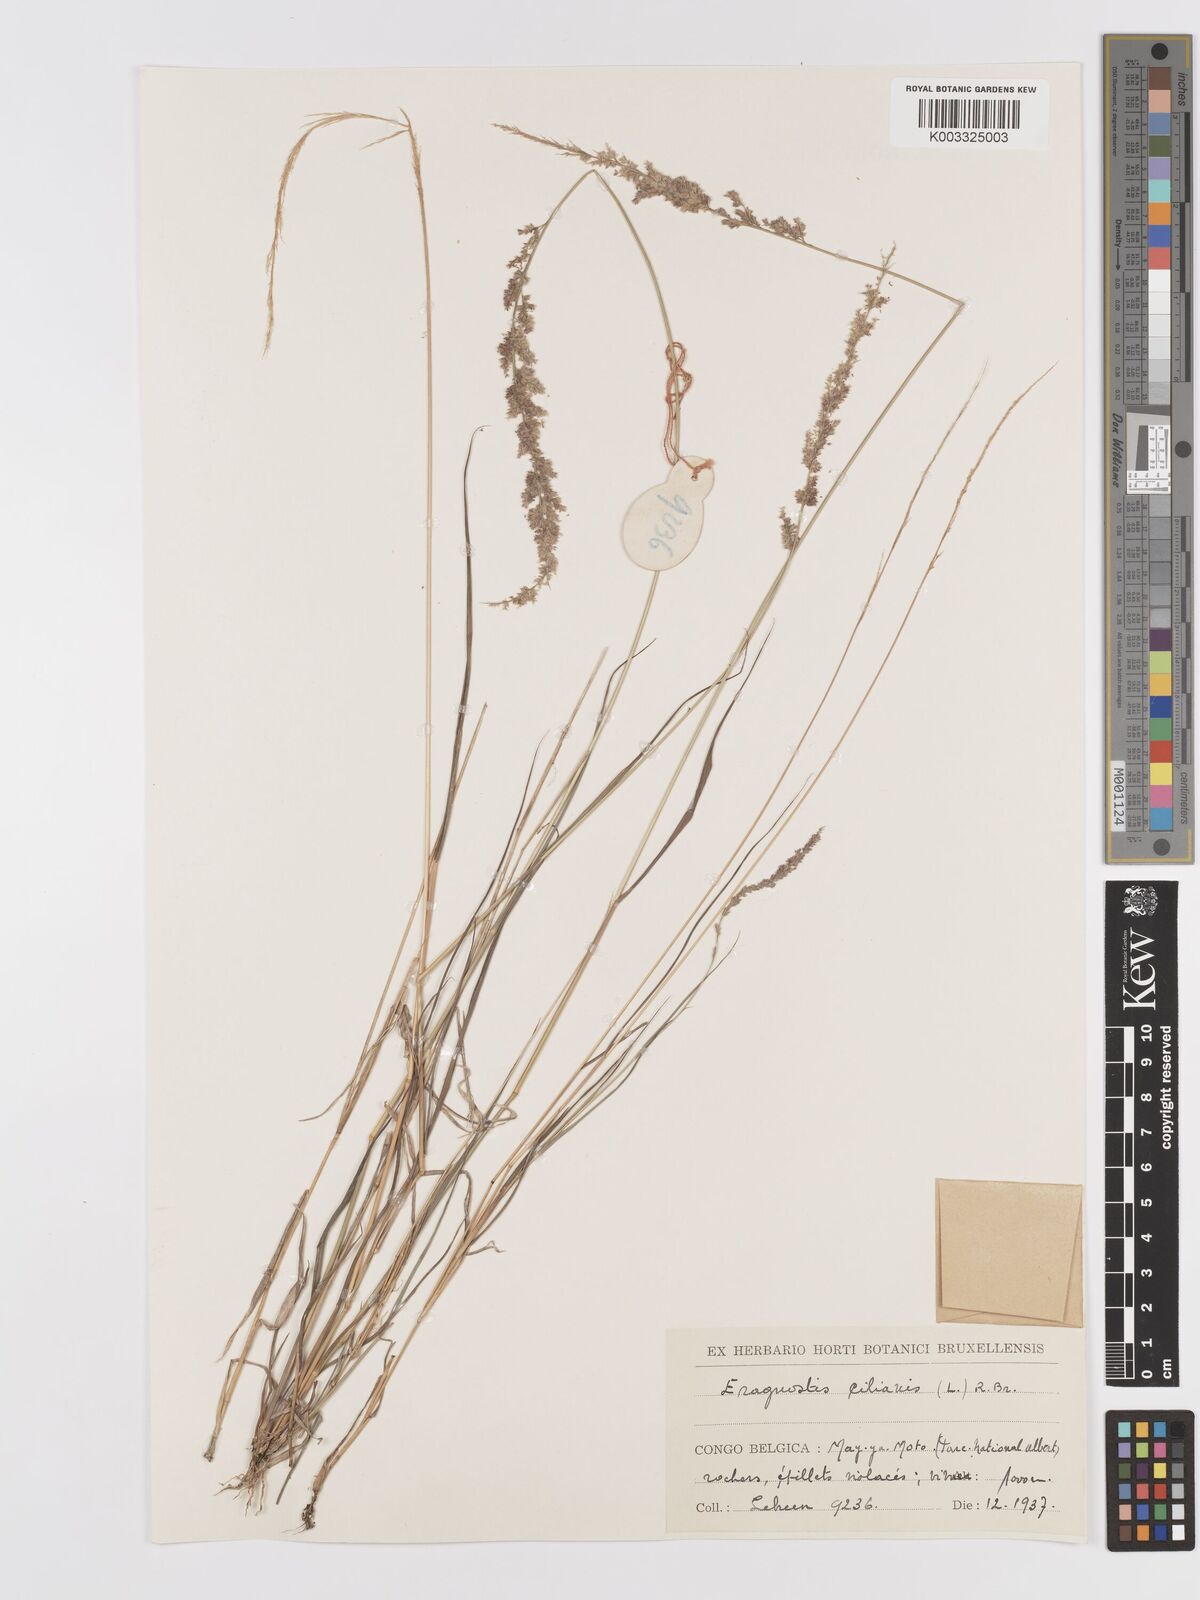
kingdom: Plantae
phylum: Tracheophyta
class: Liliopsida
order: Poales
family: Poaceae
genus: Eragrostis
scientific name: Eragrostis ciliaris
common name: Gophertail lovegrass
